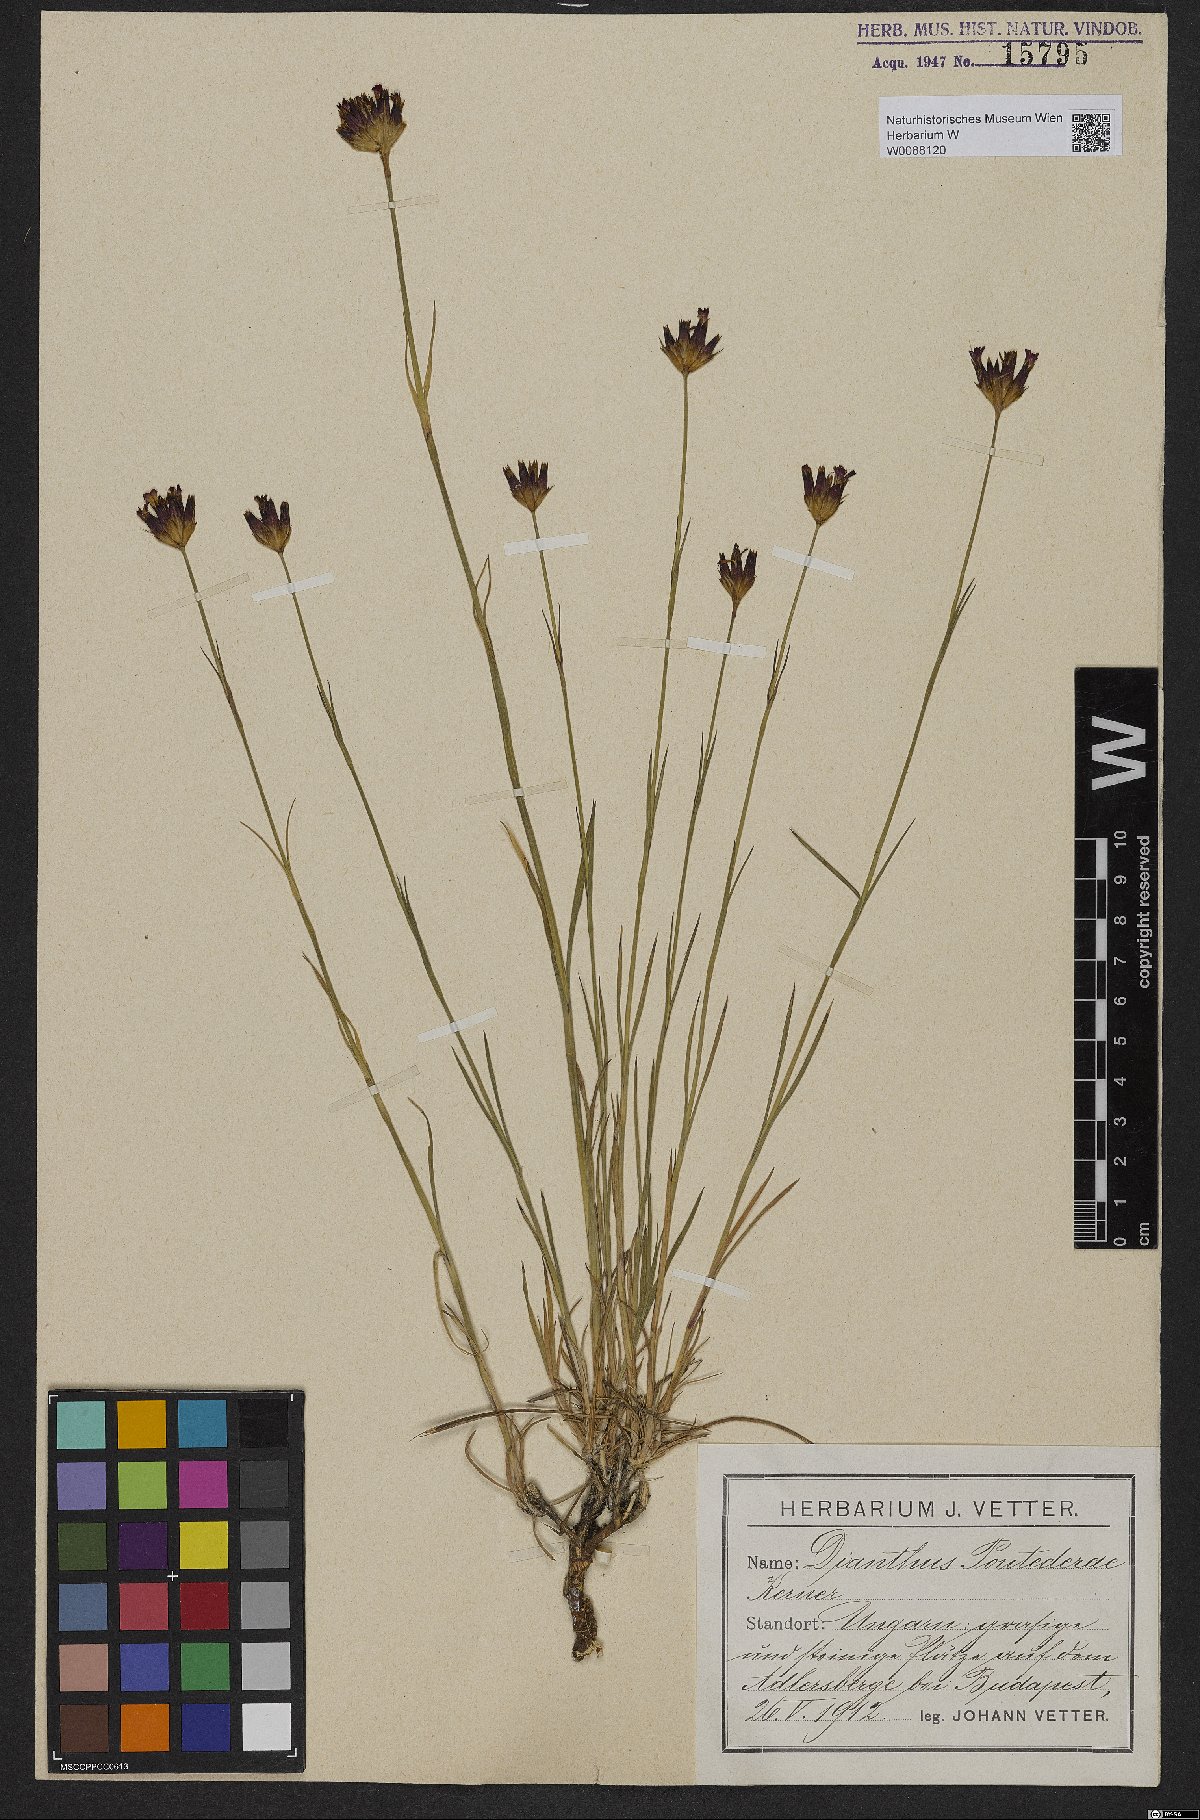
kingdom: Plantae
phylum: Tracheophyta
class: Magnoliopsida
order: Caryophyllales
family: Caryophyllaceae
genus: Dianthus
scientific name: Dianthus pontederae
